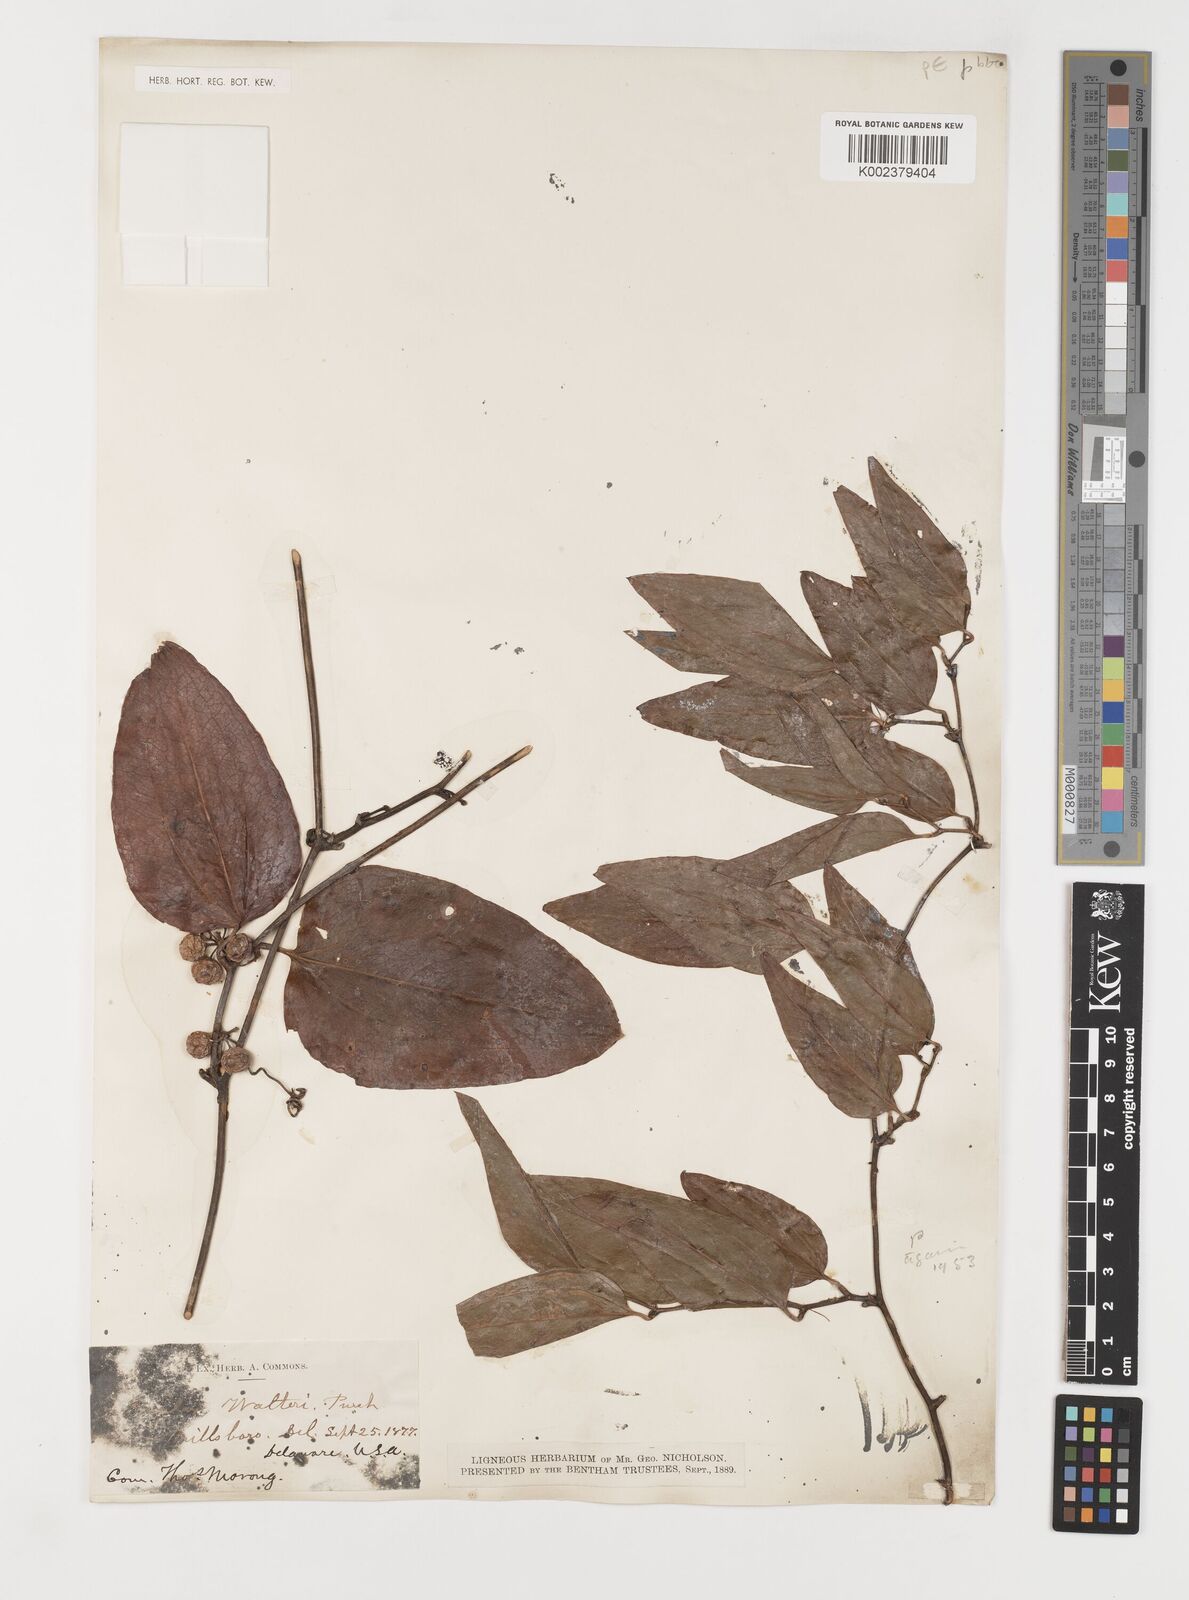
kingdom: Plantae
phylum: Tracheophyta
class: Liliopsida
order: Liliales
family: Smilacaceae
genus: Smilax
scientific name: Smilax walteri
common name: Coral greenbrier
